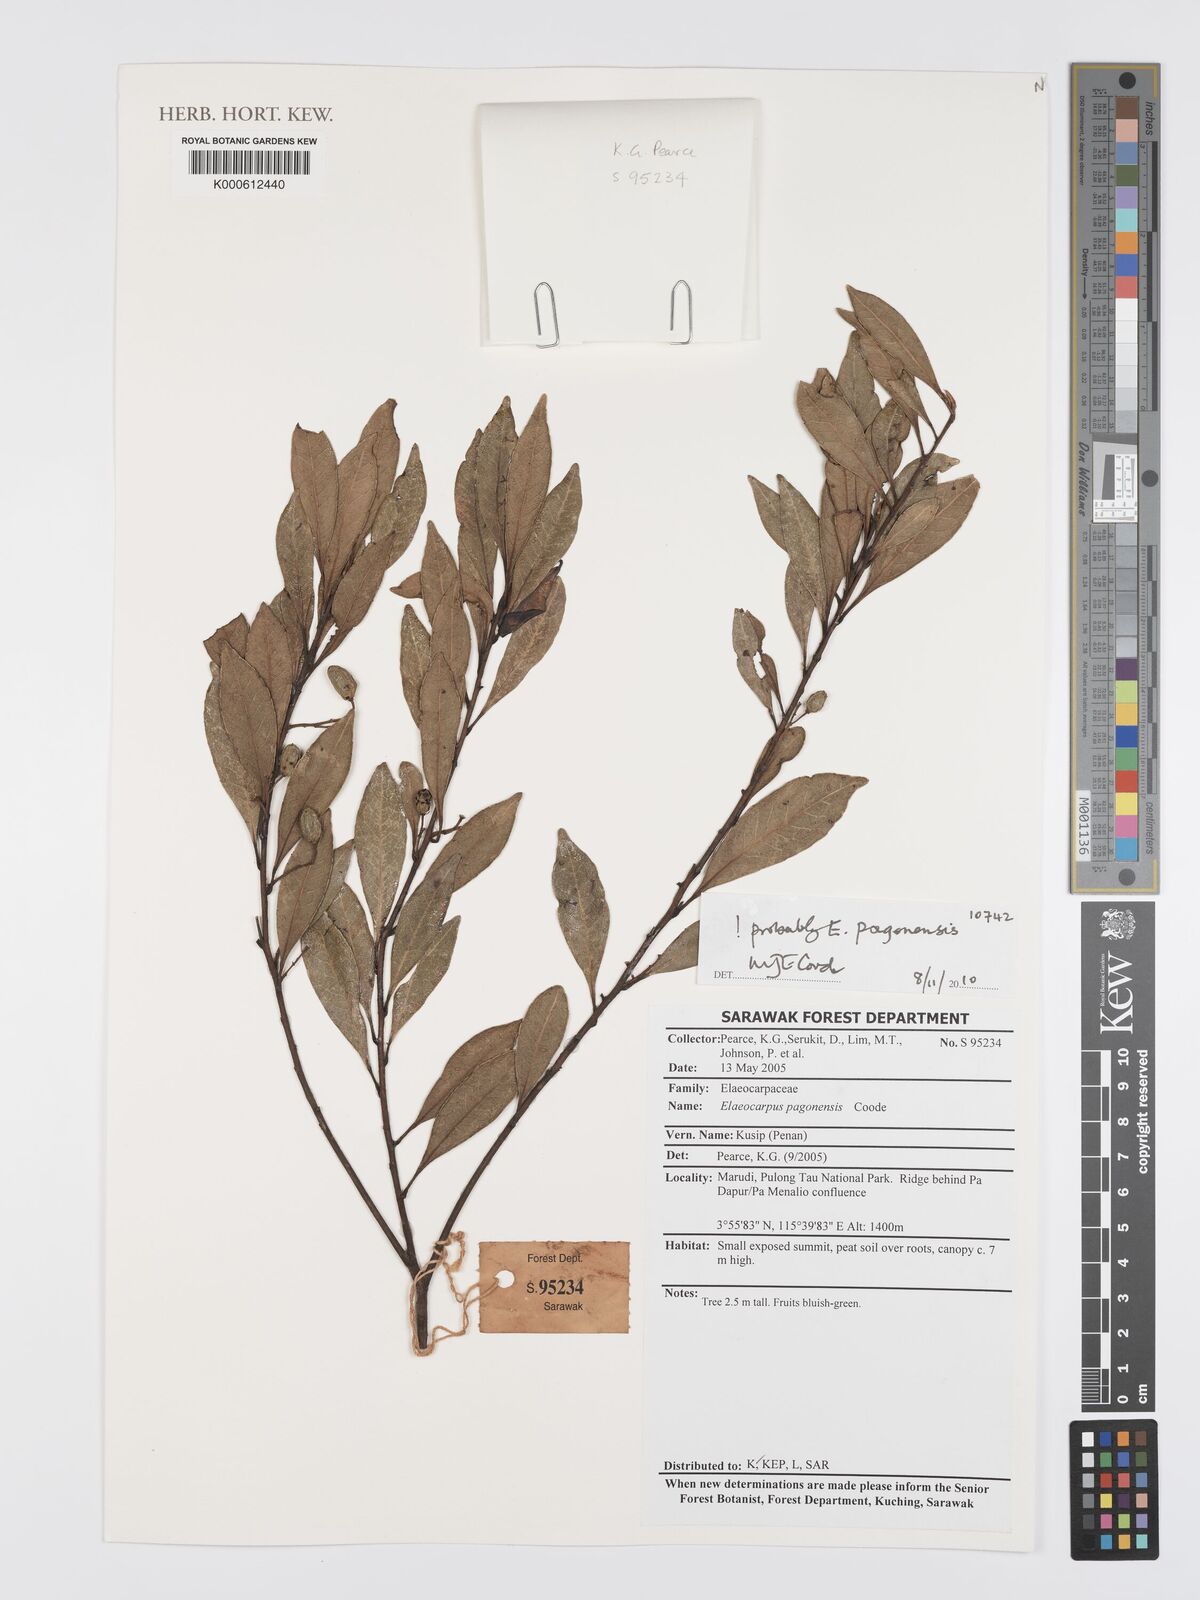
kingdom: Plantae
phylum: Tracheophyta
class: Magnoliopsida
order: Oxalidales
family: Elaeocarpaceae
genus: Elaeocarpus
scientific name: Elaeocarpus pagonensis
